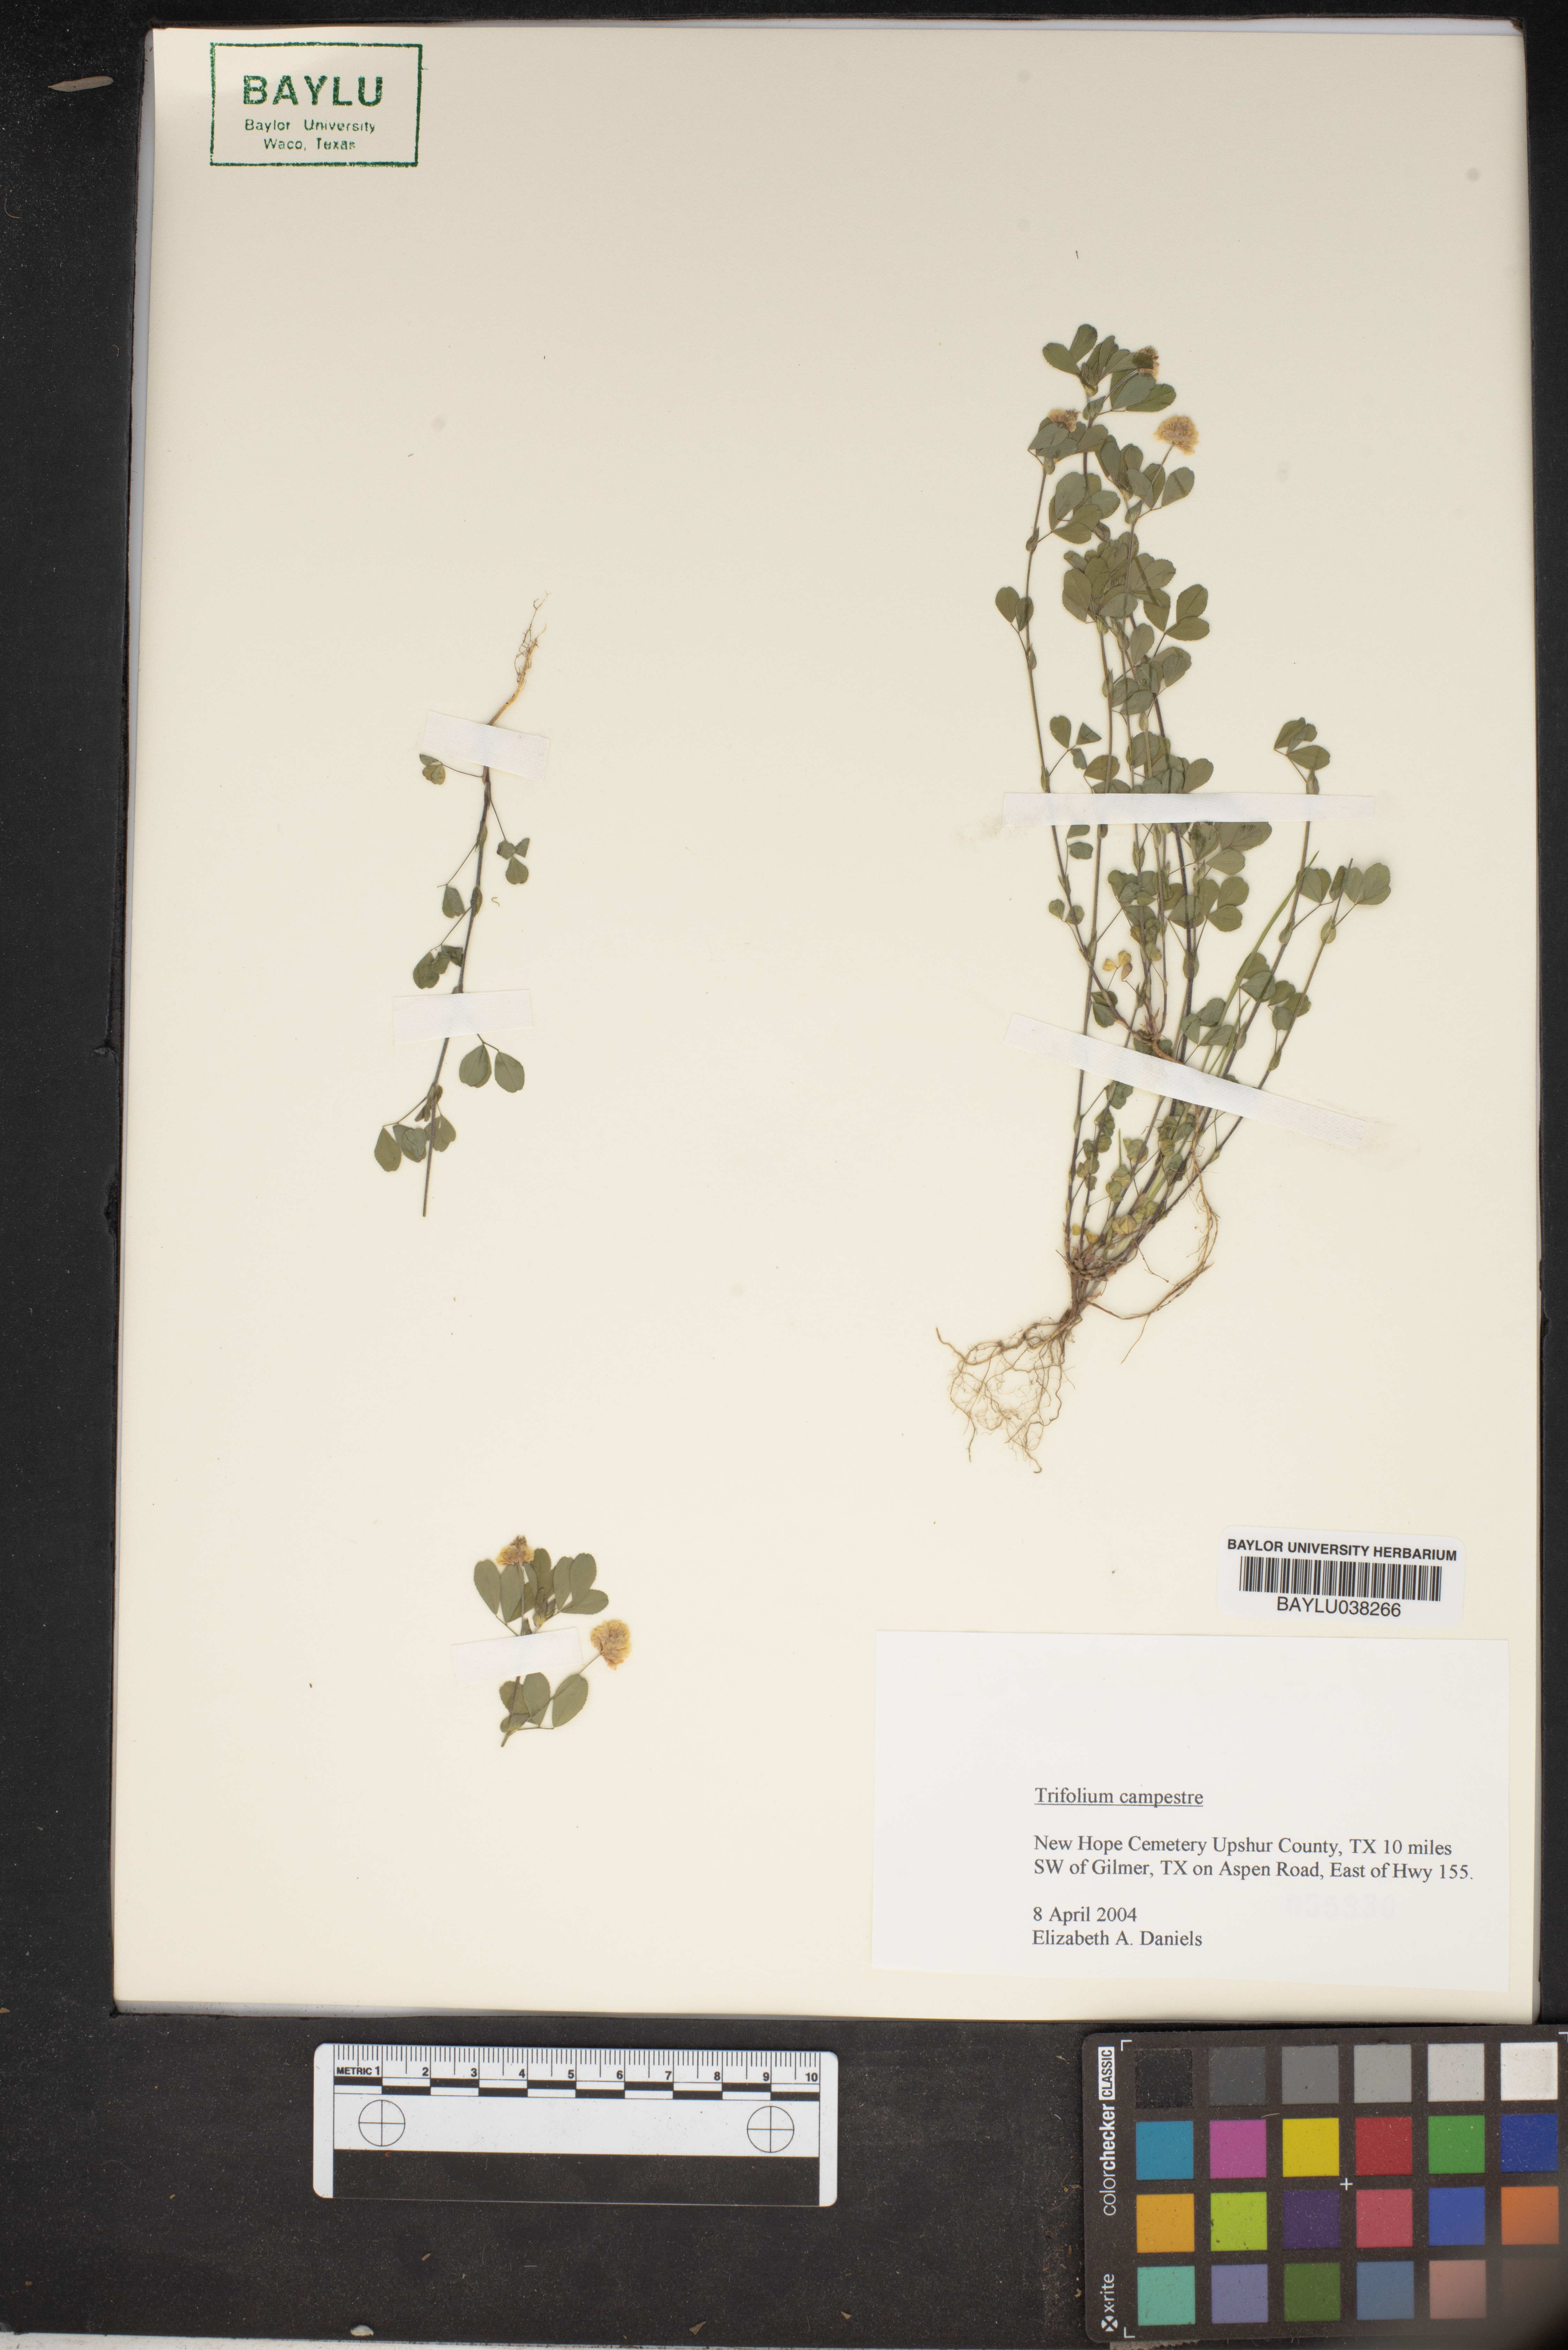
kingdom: Plantae
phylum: Tracheophyta
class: Magnoliopsida
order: Fabales
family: Fabaceae
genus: Trifolium
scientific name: Trifolium campestre
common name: Field clover
